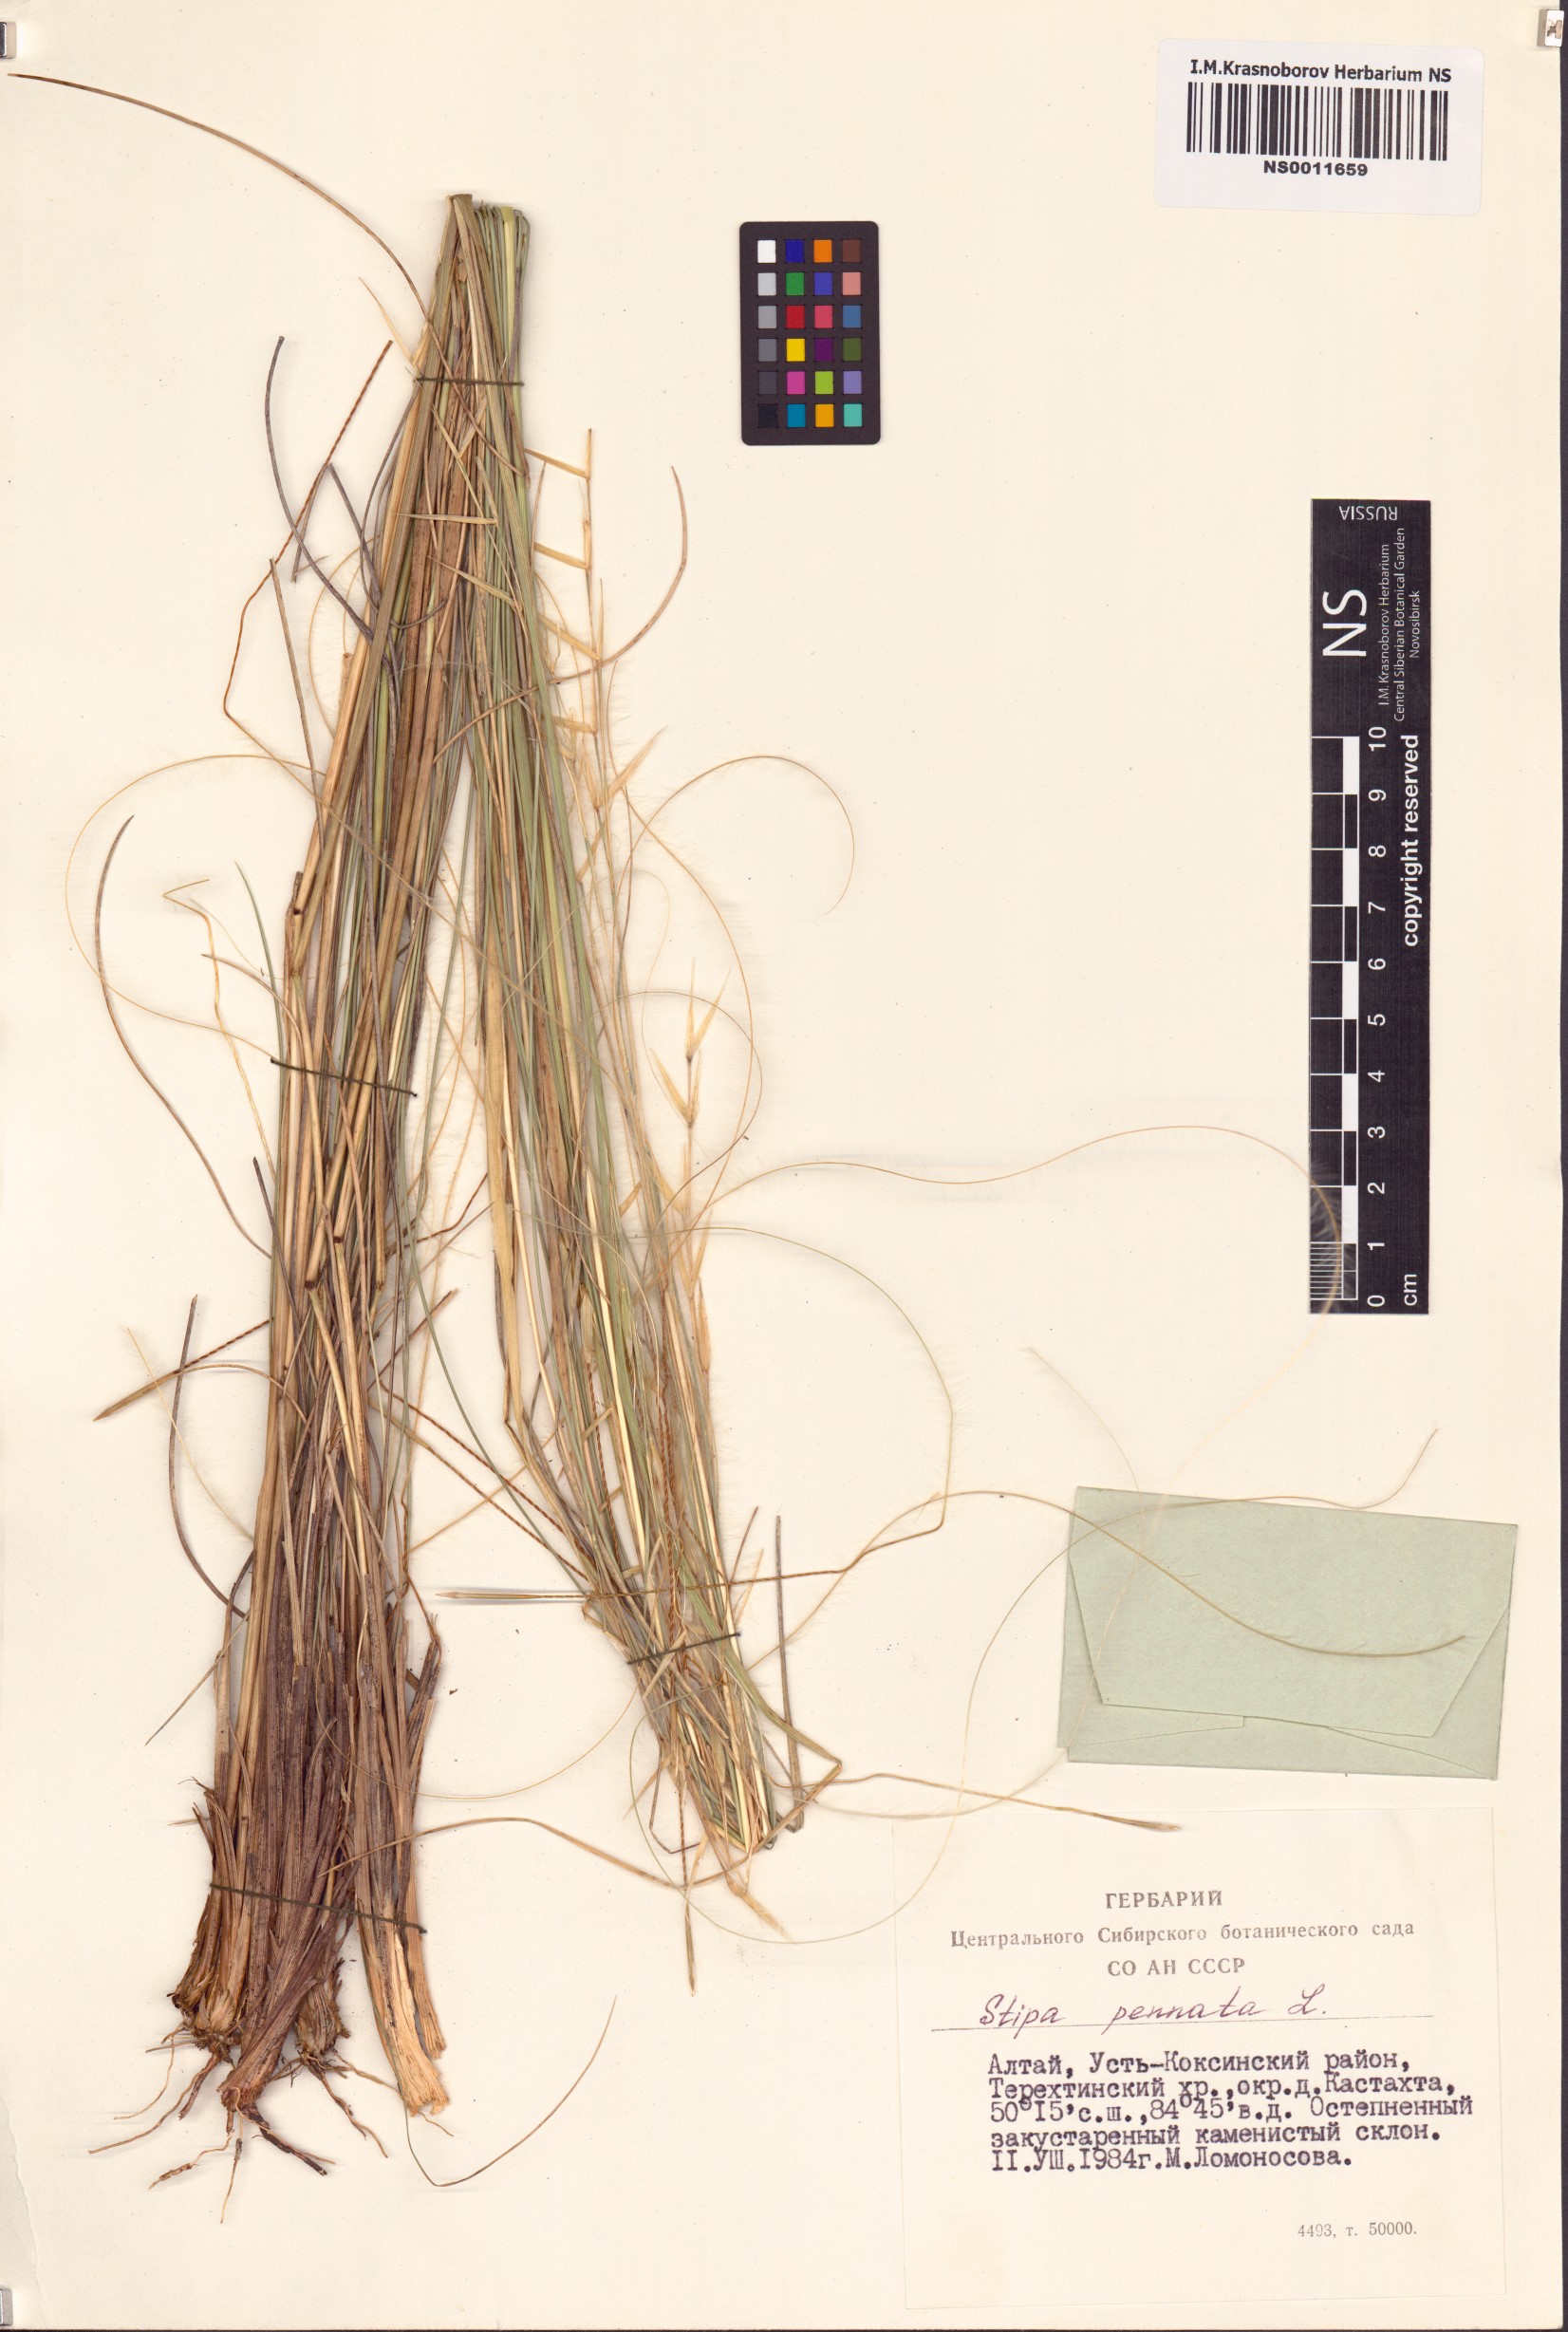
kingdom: Plantae
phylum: Tracheophyta
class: Liliopsida
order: Poales
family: Poaceae
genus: Stipa
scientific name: Stipa pennata
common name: European feather grass
